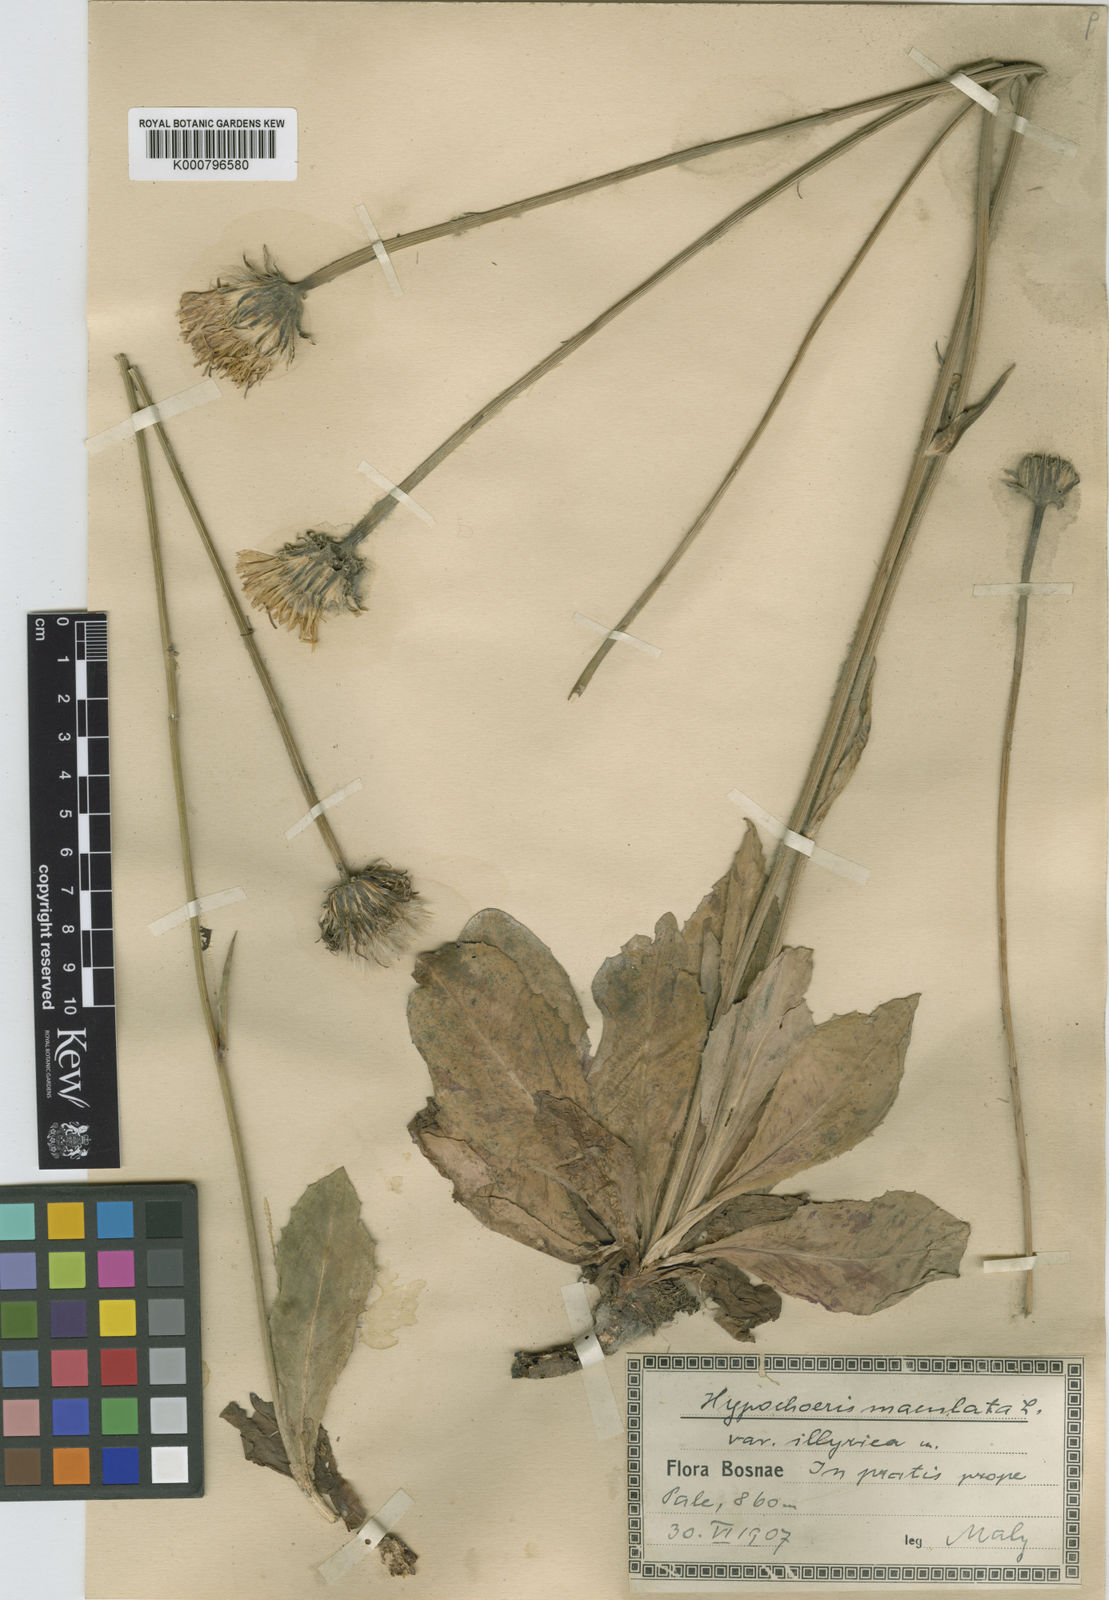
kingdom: Plantae
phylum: Tracheophyta
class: Magnoliopsida
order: Asterales
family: Asteraceae
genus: Hypochaeris
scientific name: Hypochaeris
